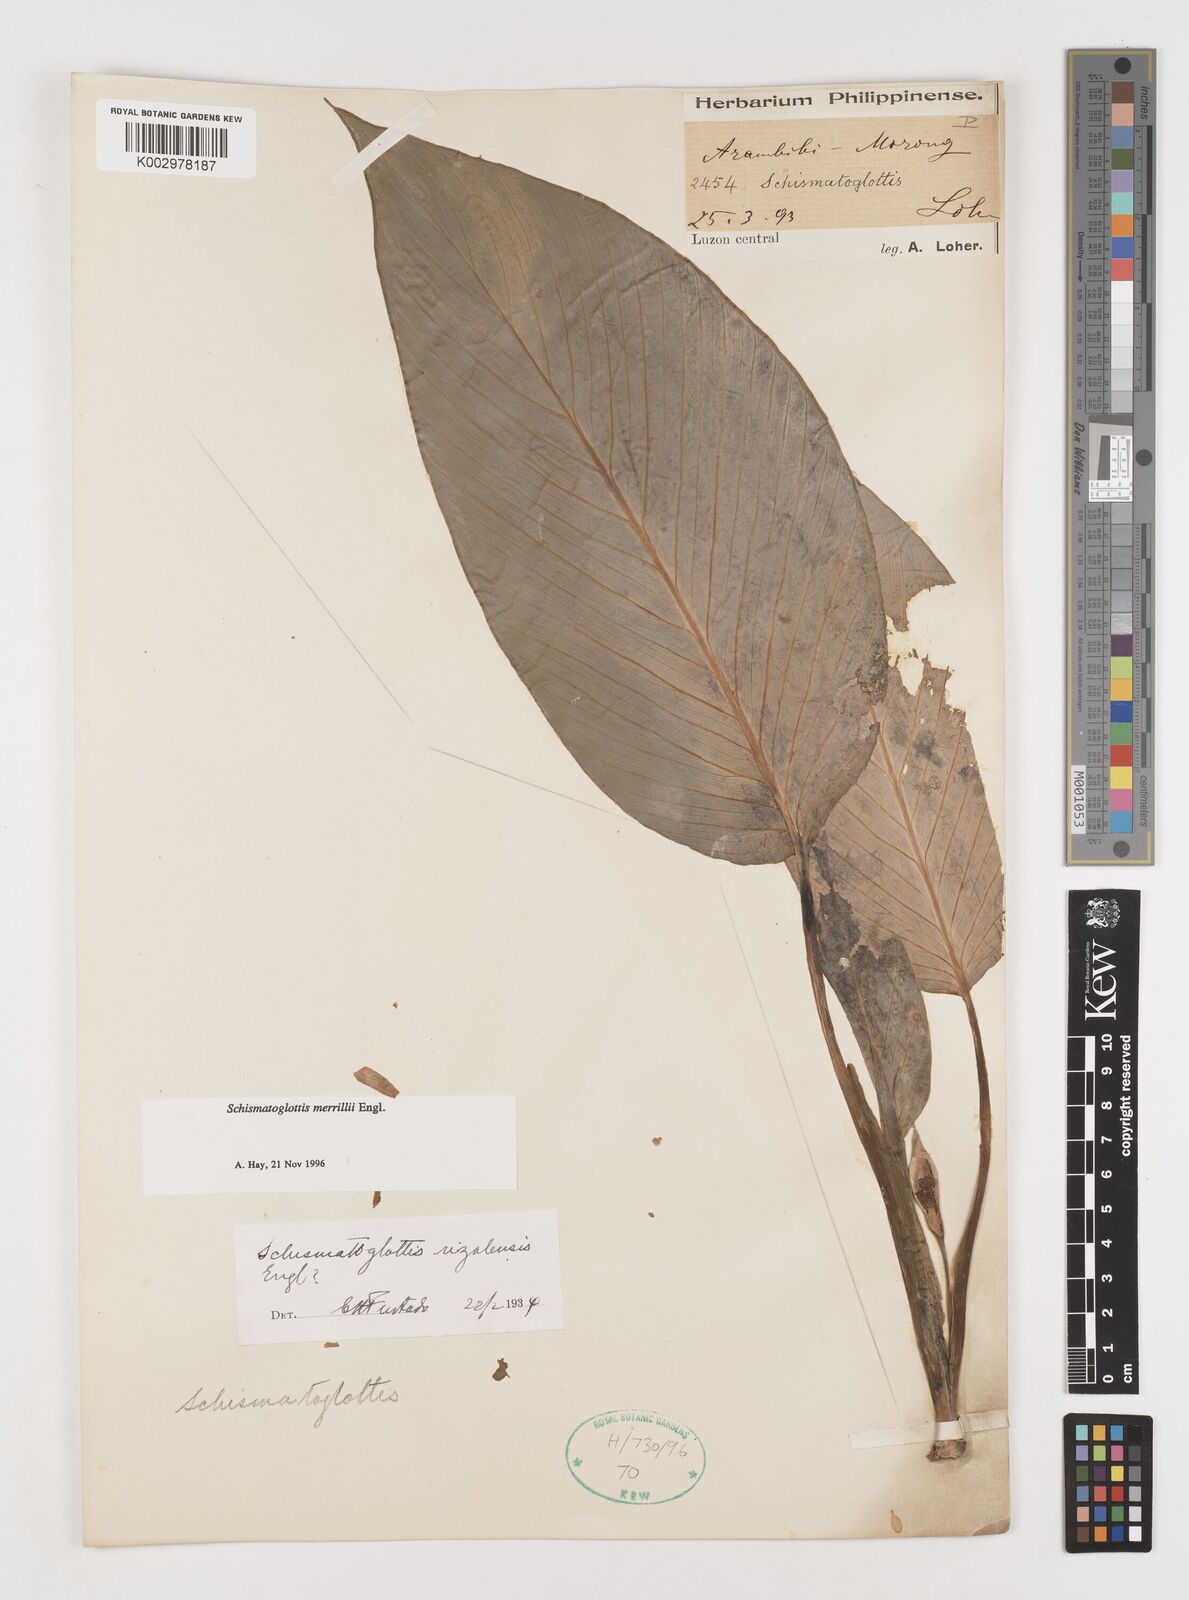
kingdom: Plantae
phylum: Tracheophyta
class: Liliopsida
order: Alismatales
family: Araceae
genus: Schismatoglottis
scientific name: Schismatoglottis merrillii
